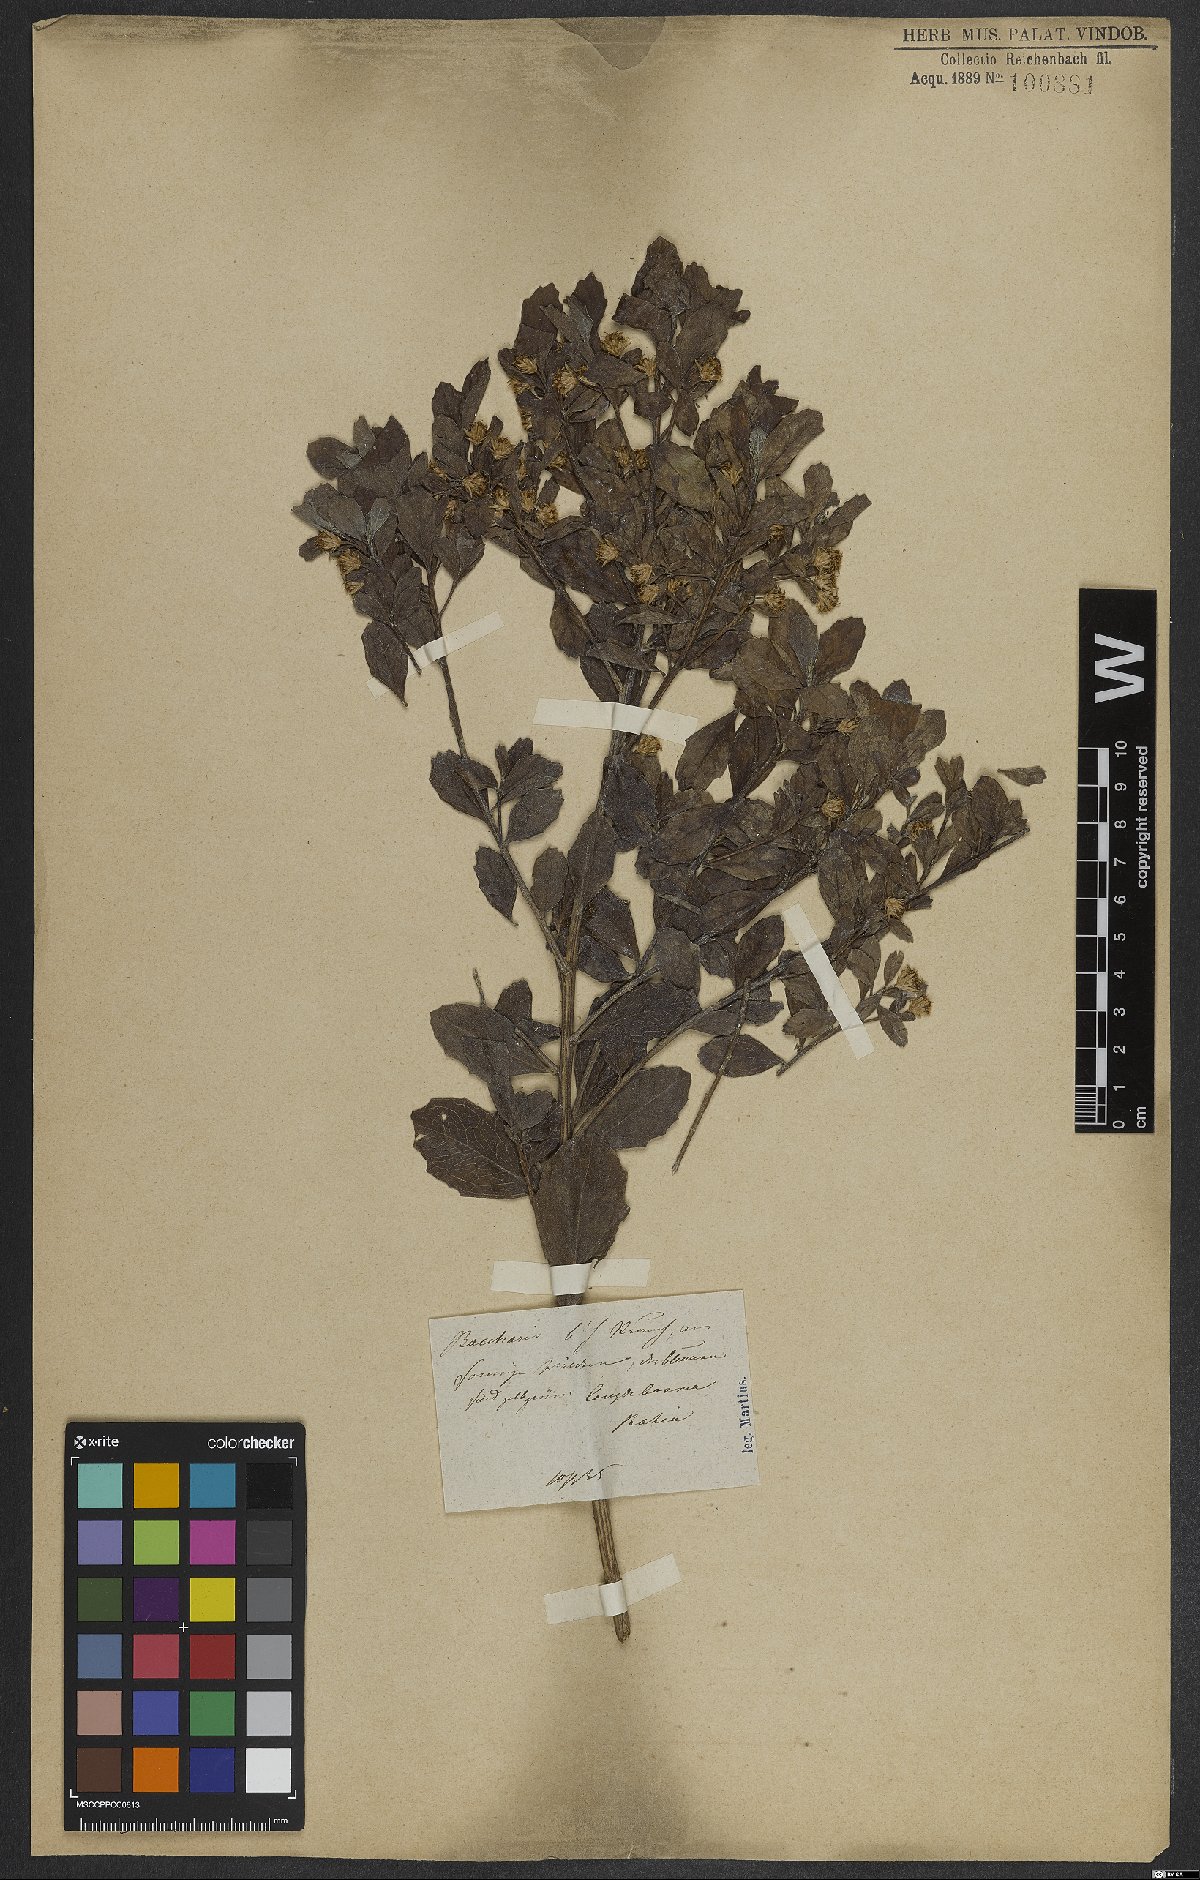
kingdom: Plantae
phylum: Tracheophyta
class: Magnoliopsida
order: Asterales
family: Asteraceae
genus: Baccharis
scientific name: Baccharis
